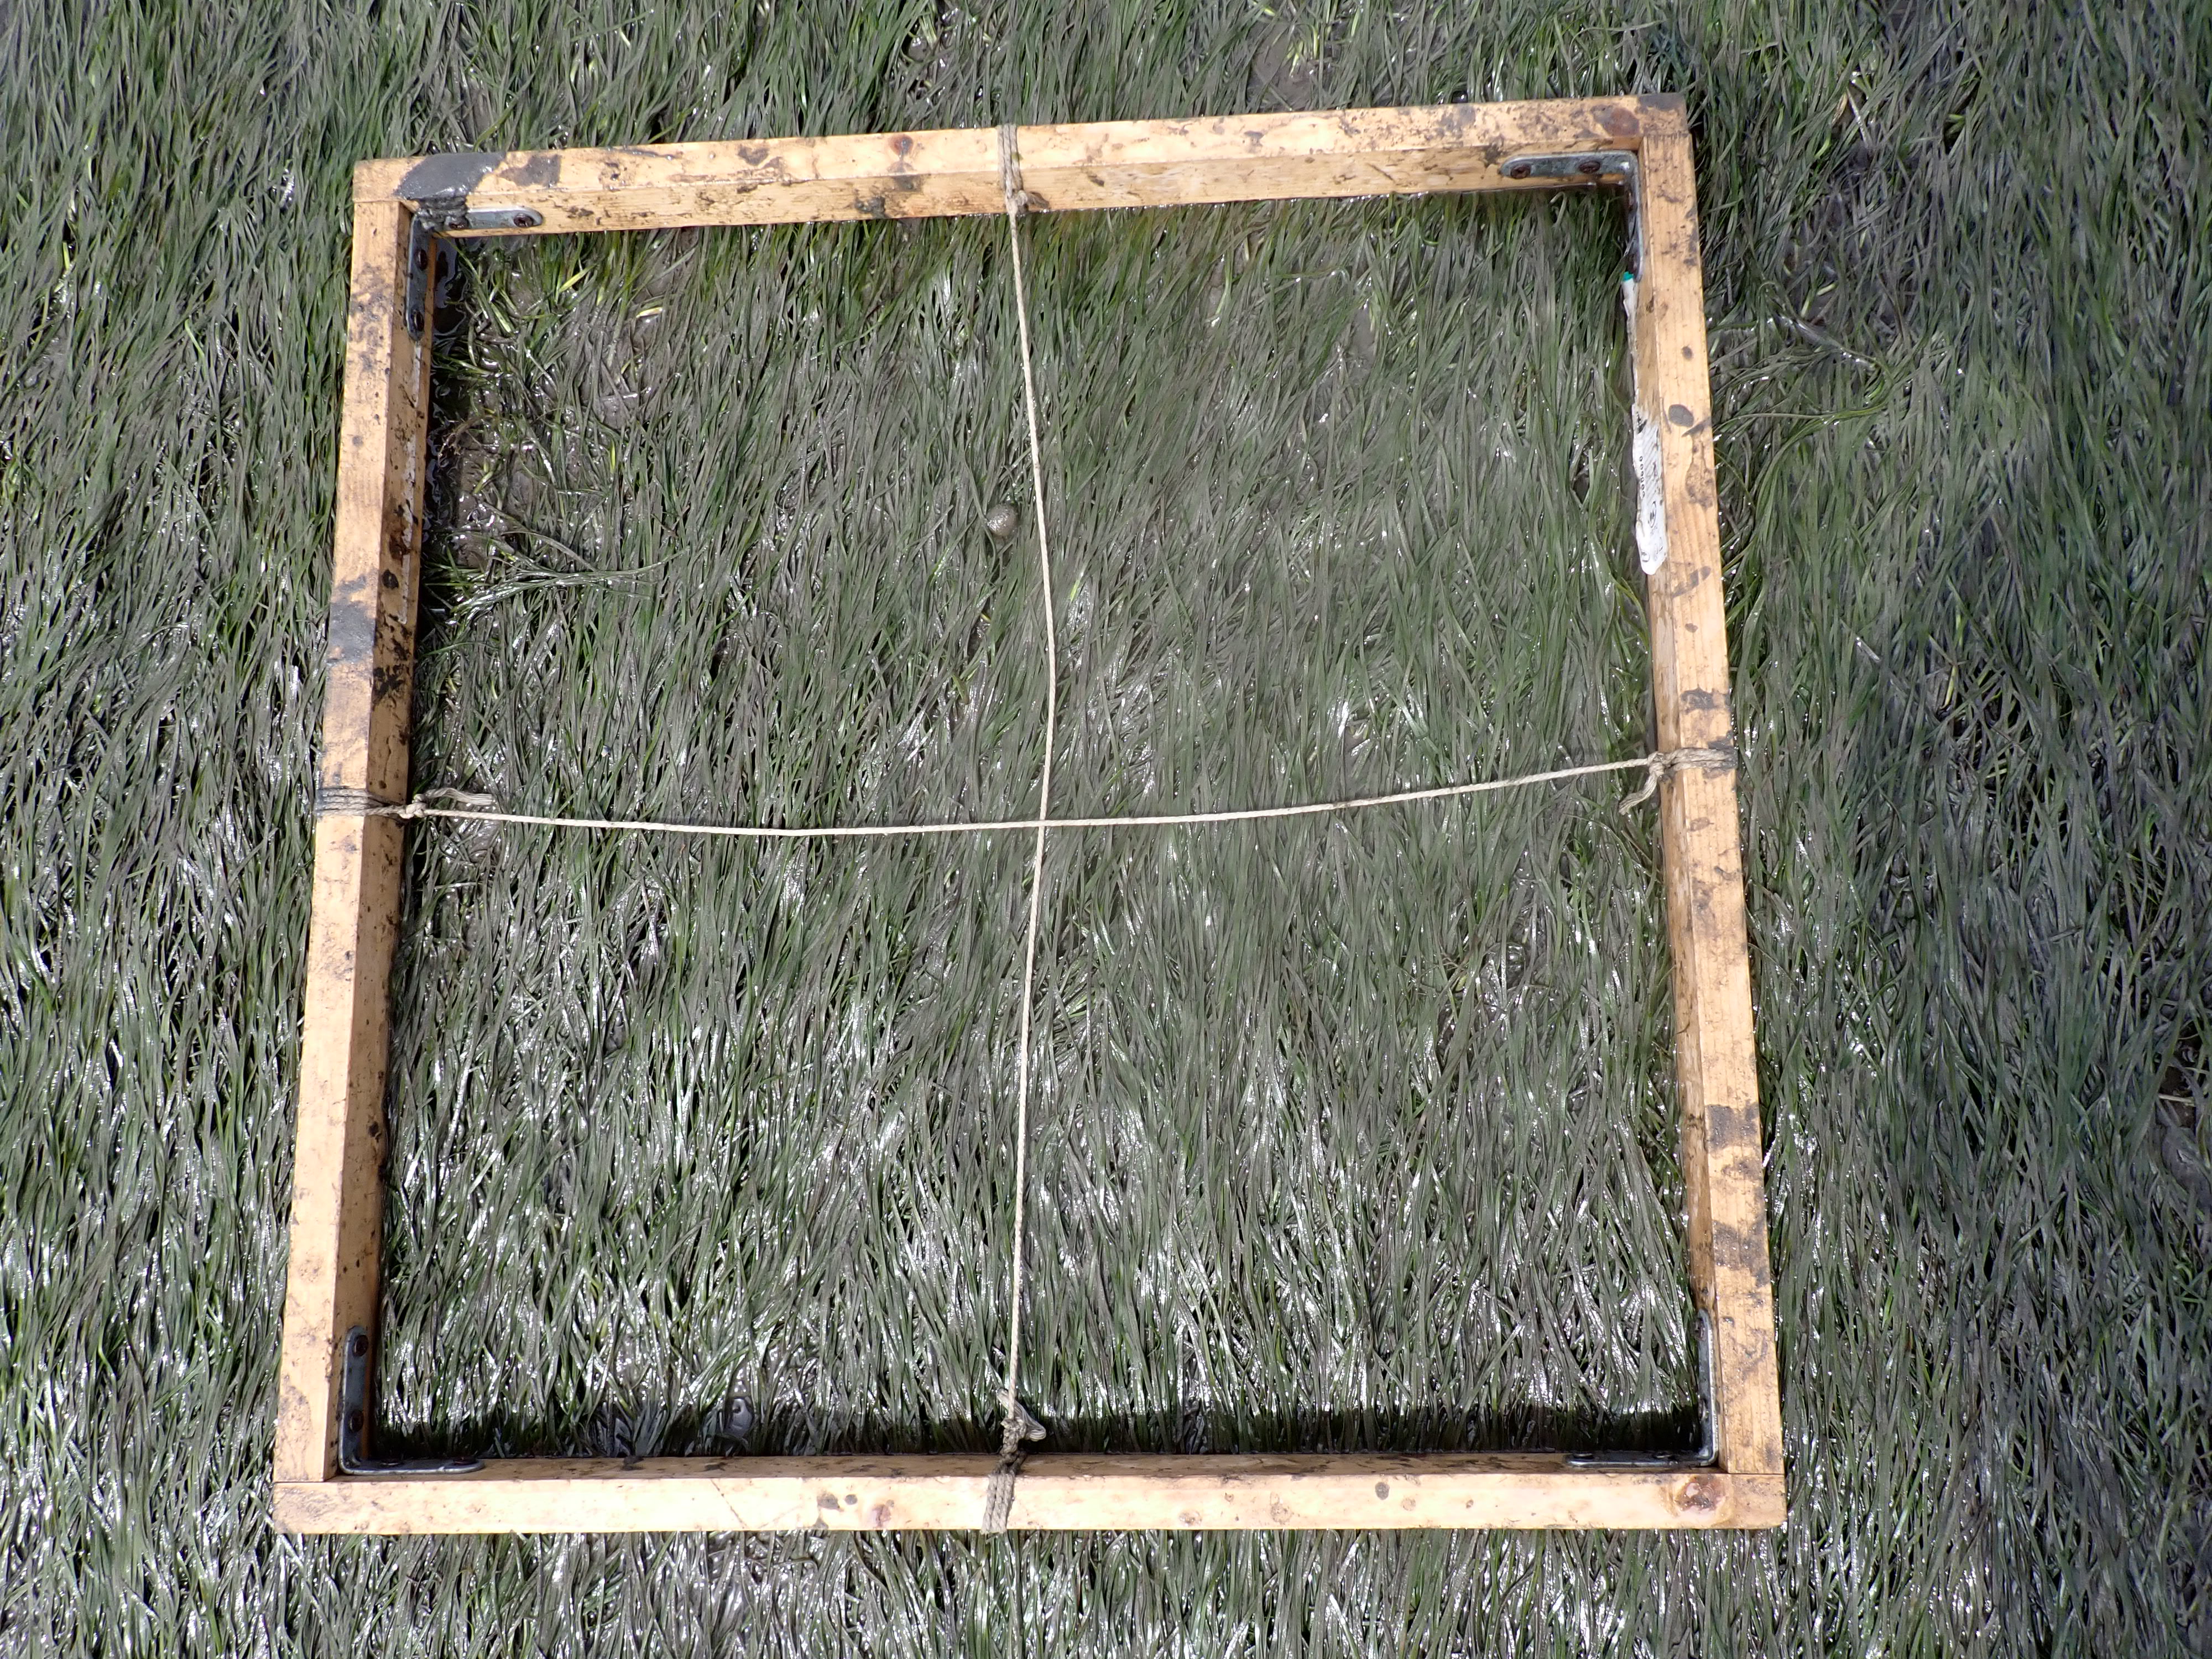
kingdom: Plantae
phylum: Tracheophyta
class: Liliopsida
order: Alismatales
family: Zosteraceae
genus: Zostera
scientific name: Zostera noltii
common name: Dwarf eelgrass
